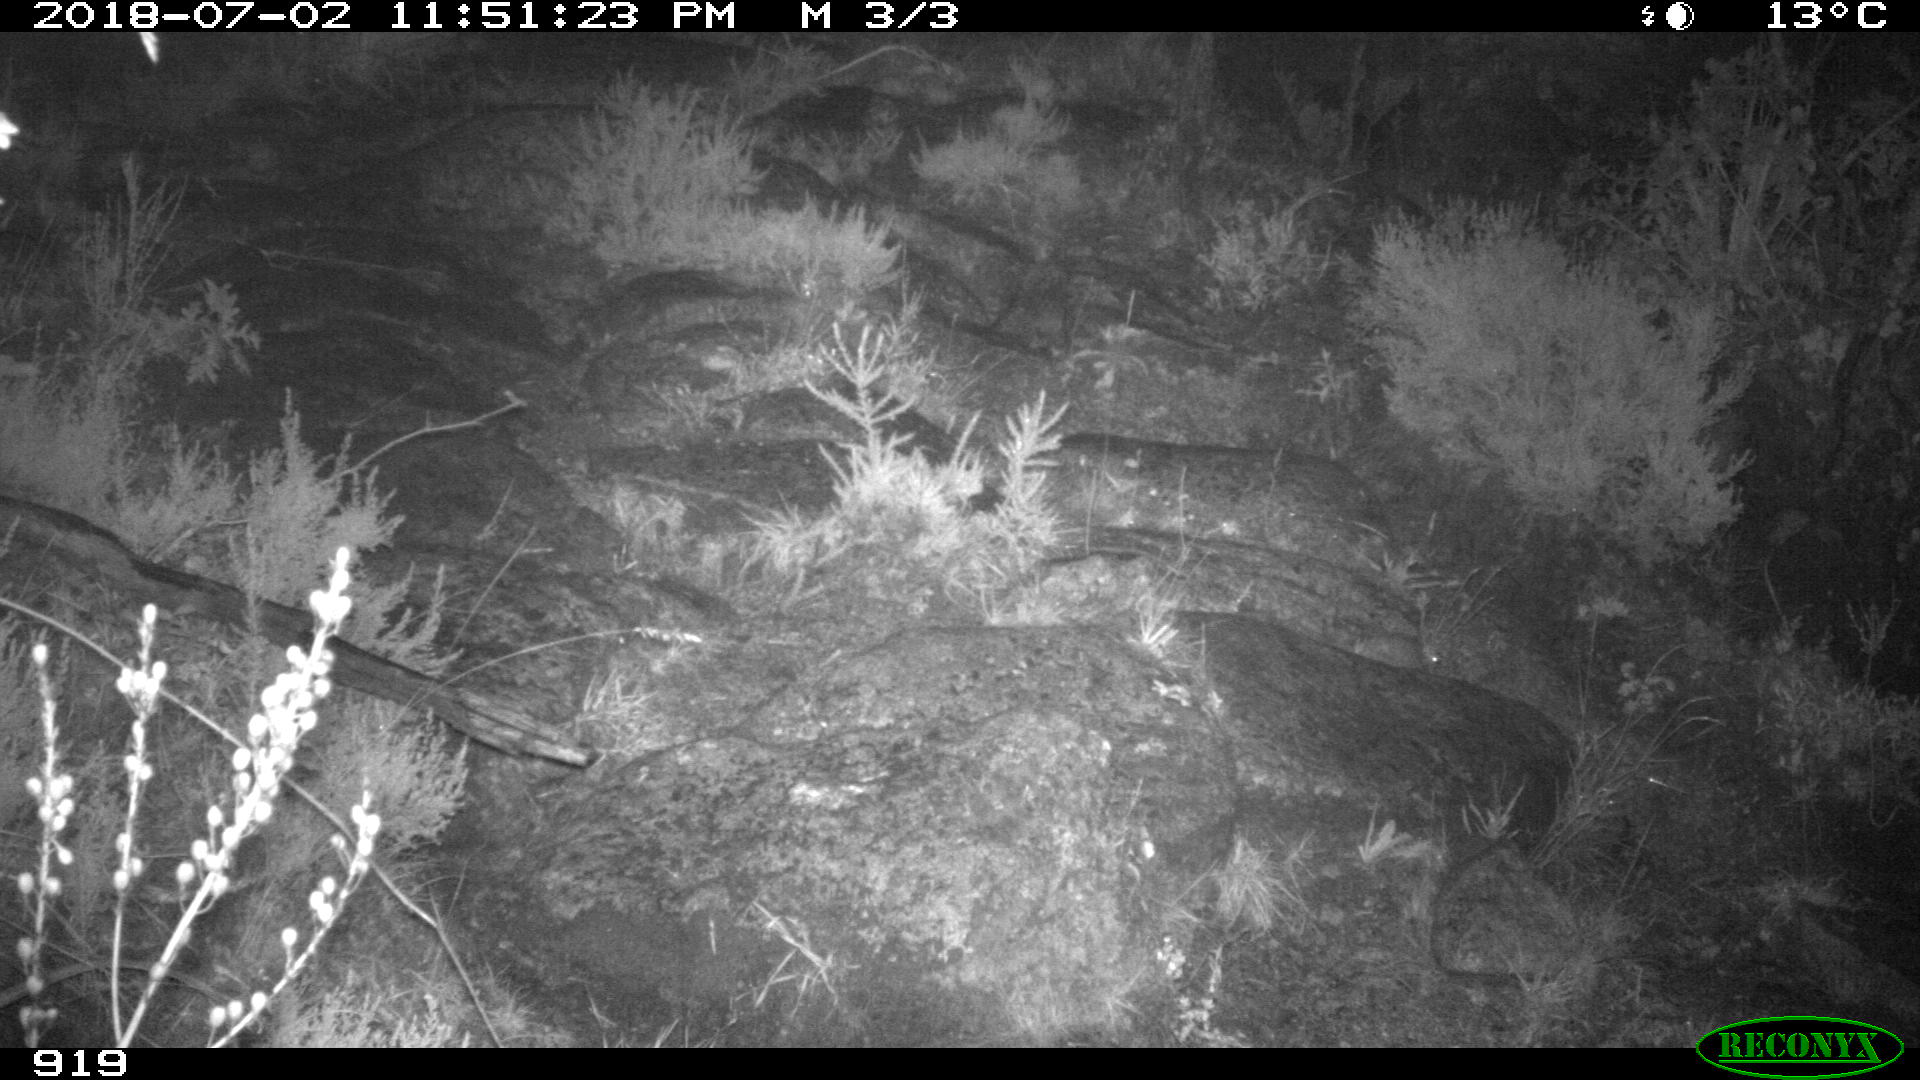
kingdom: Animalia
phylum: Chordata
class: Mammalia
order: Artiodactyla
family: Bovidae
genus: Bos
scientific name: Bos taurus
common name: Domesticated cattle
